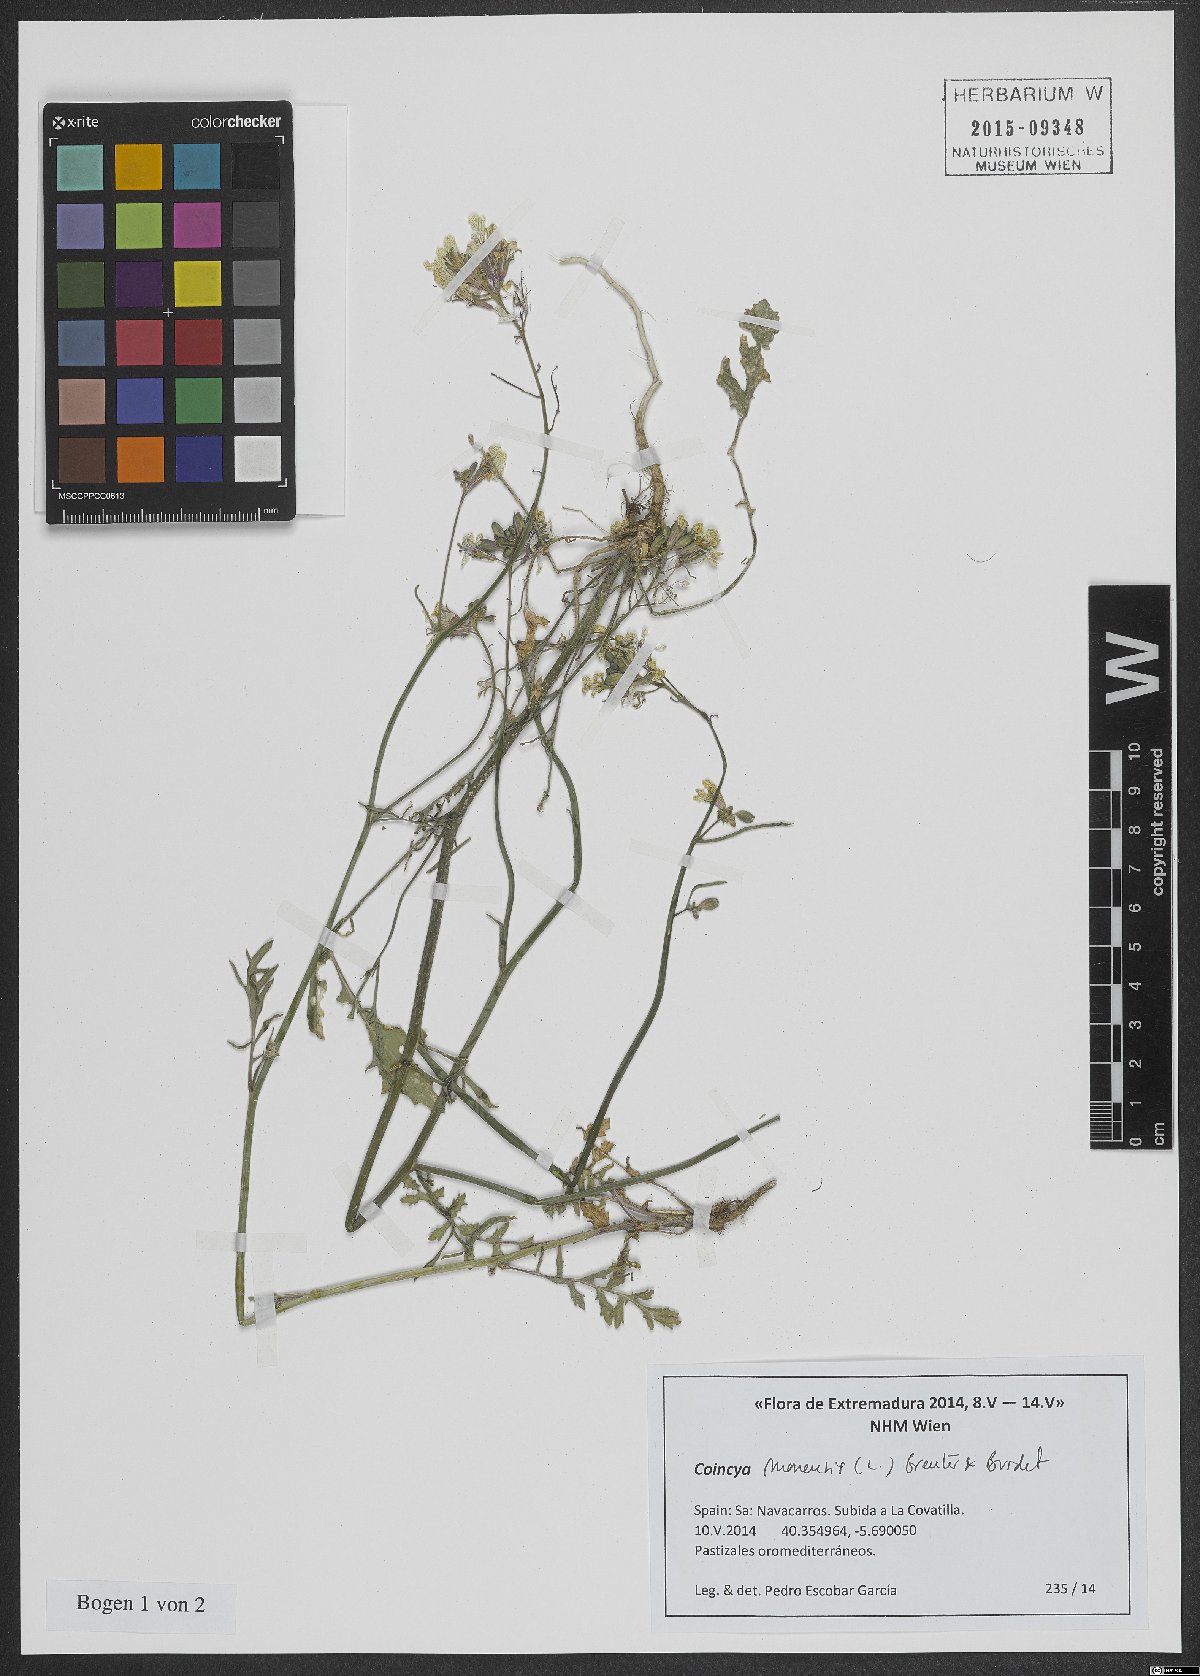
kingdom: Plantae
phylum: Tracheophyta
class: Magnoliopsida
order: Brassicales
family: Brassicaceae
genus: Coincya
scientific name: Coincya monensis
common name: Star-mustard
